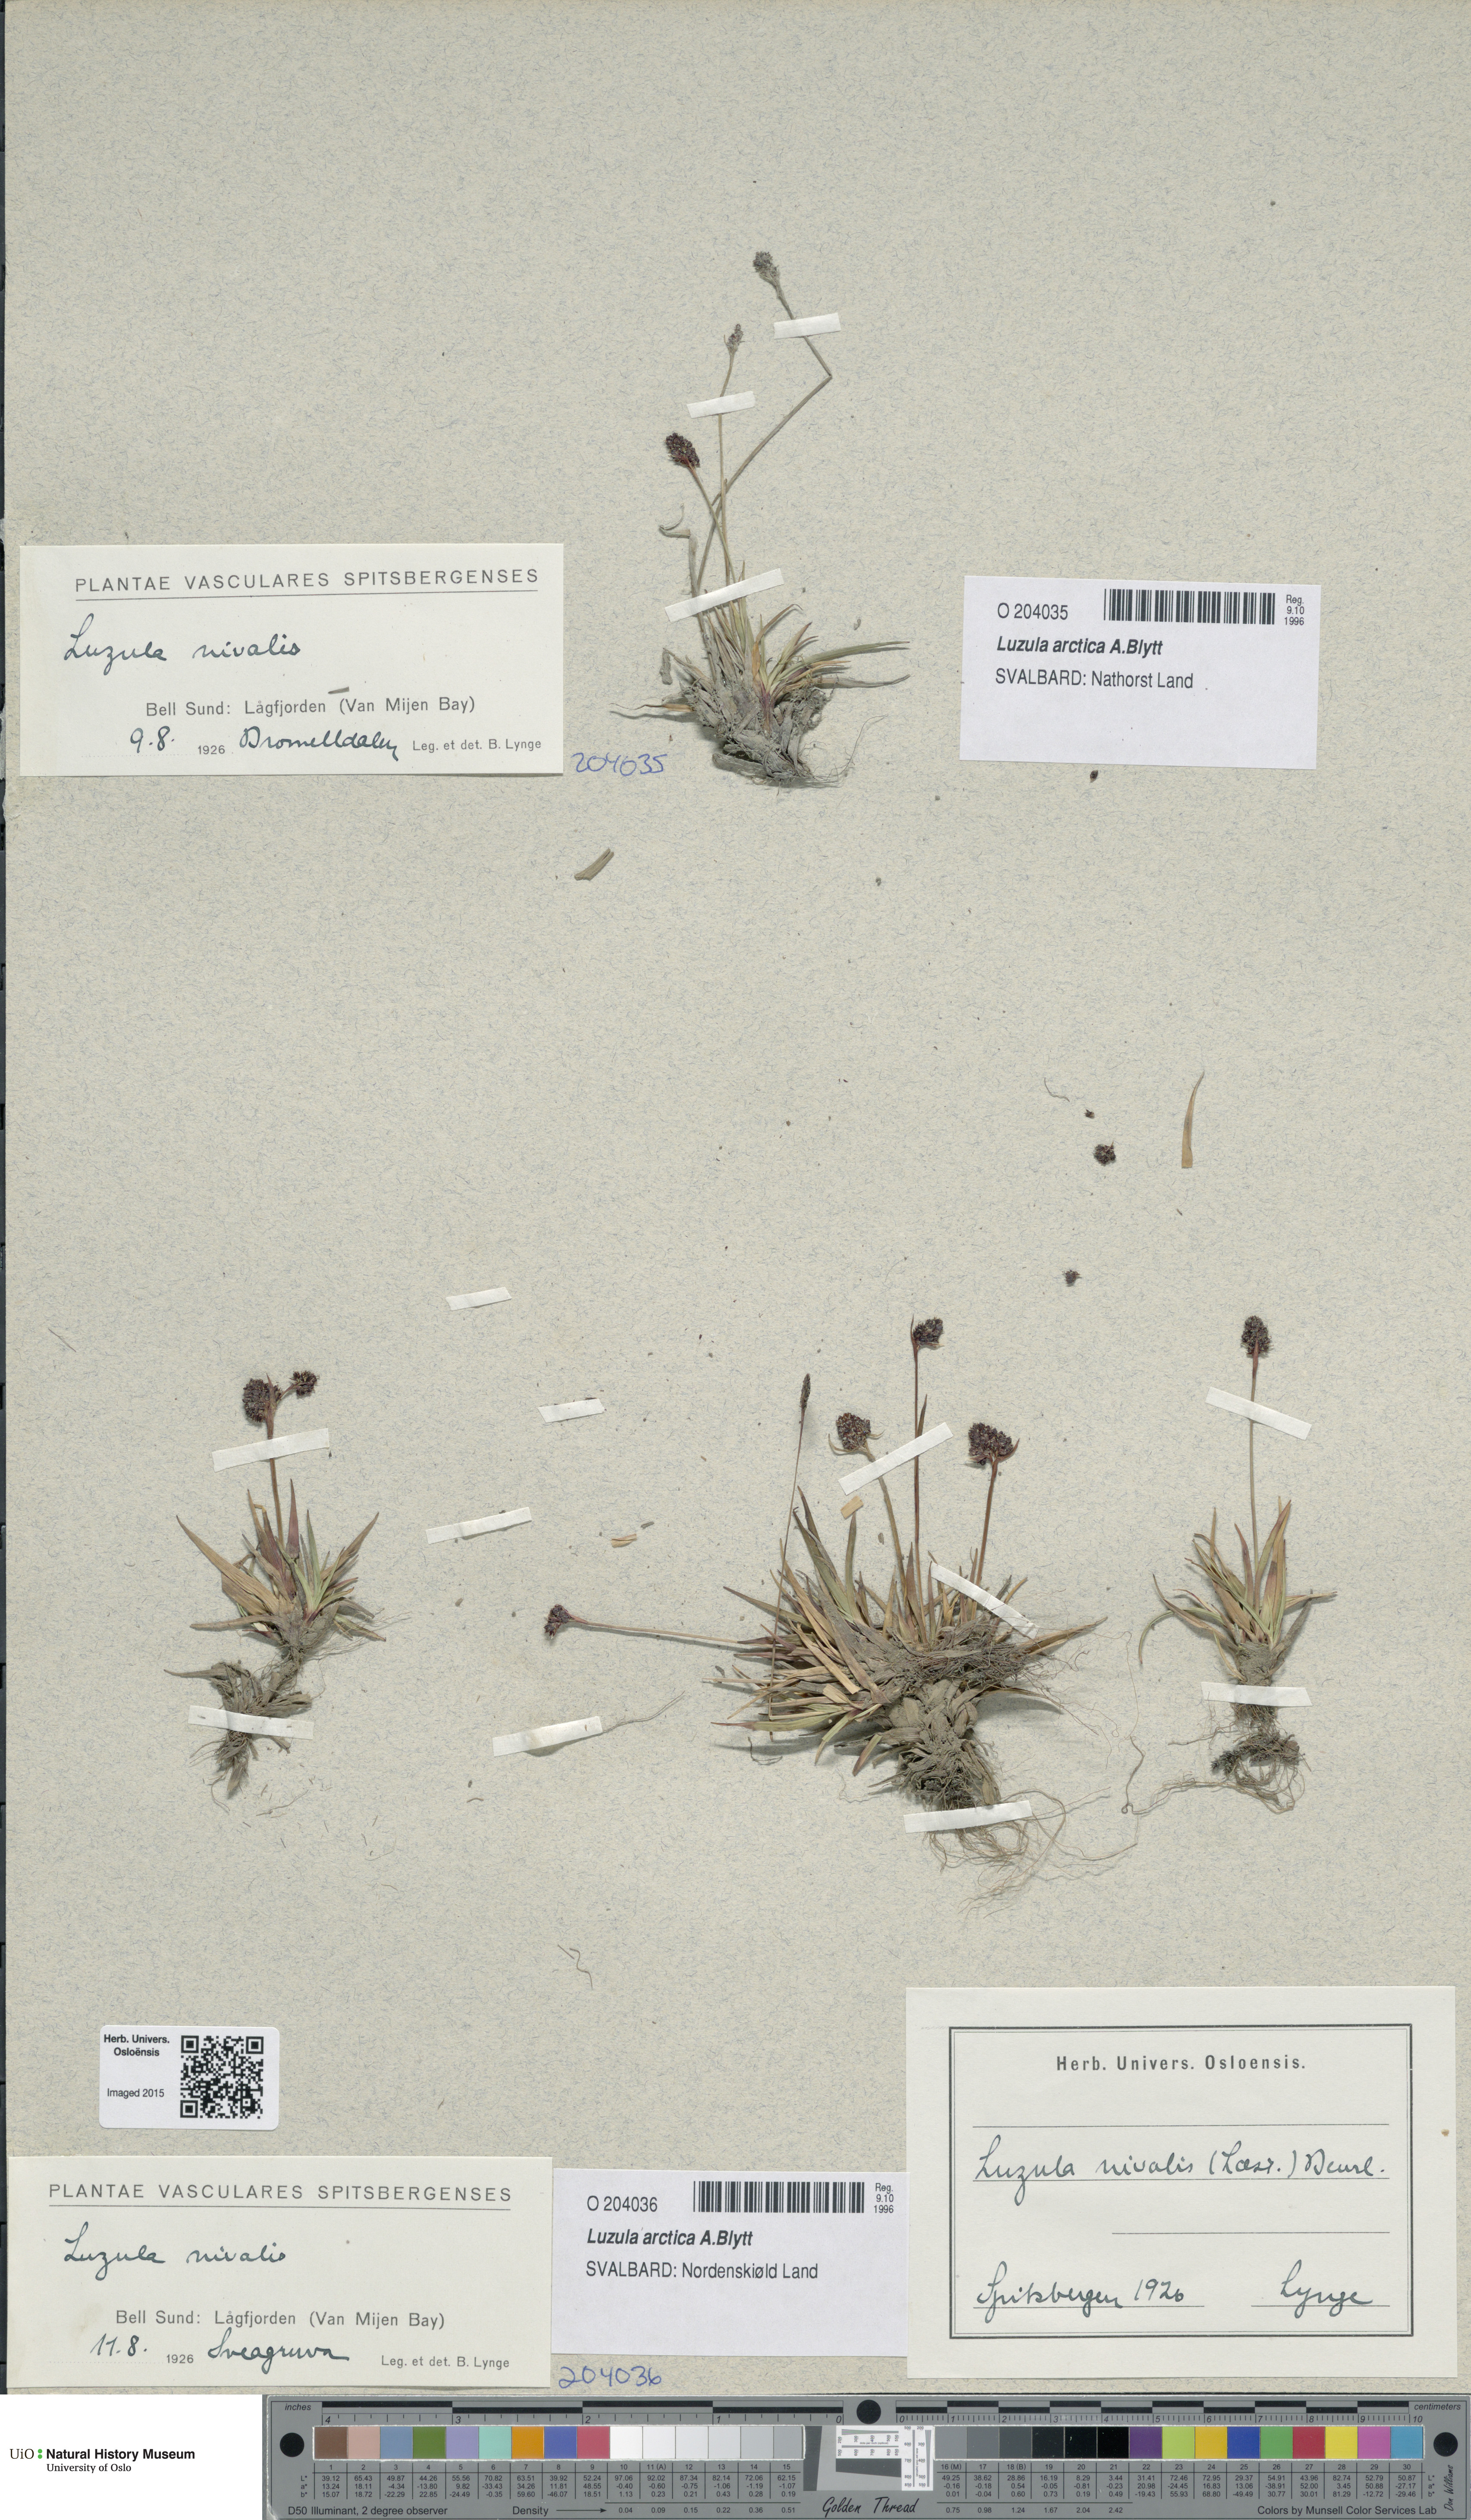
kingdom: Plantae
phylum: Tracheophyta
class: Liliopsida
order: Poales
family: Juncaceae
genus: Luzula
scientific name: Luzula nivalis
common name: Arctic woodrush
